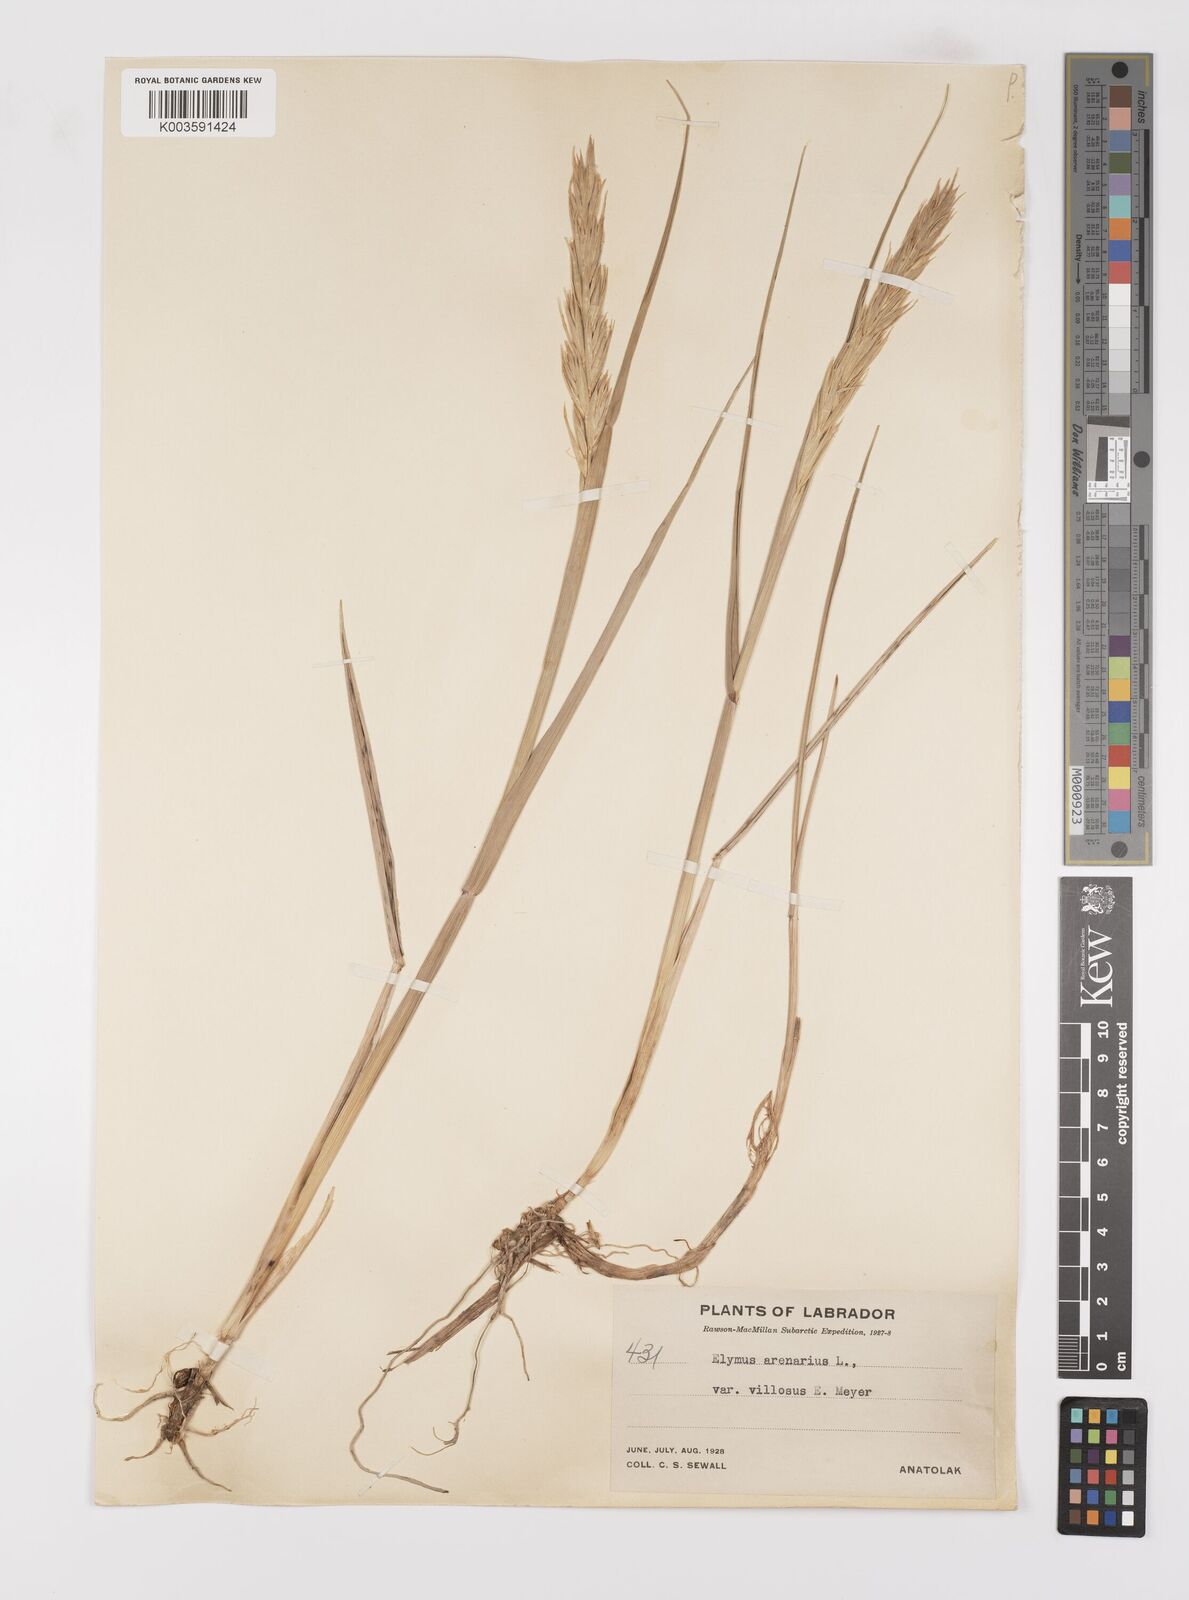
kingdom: Plantae
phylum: Tracheophyta
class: Liliopsida
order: Poales
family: Poaceae
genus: Leymus
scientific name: Leymus mollis
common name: American dune grass
